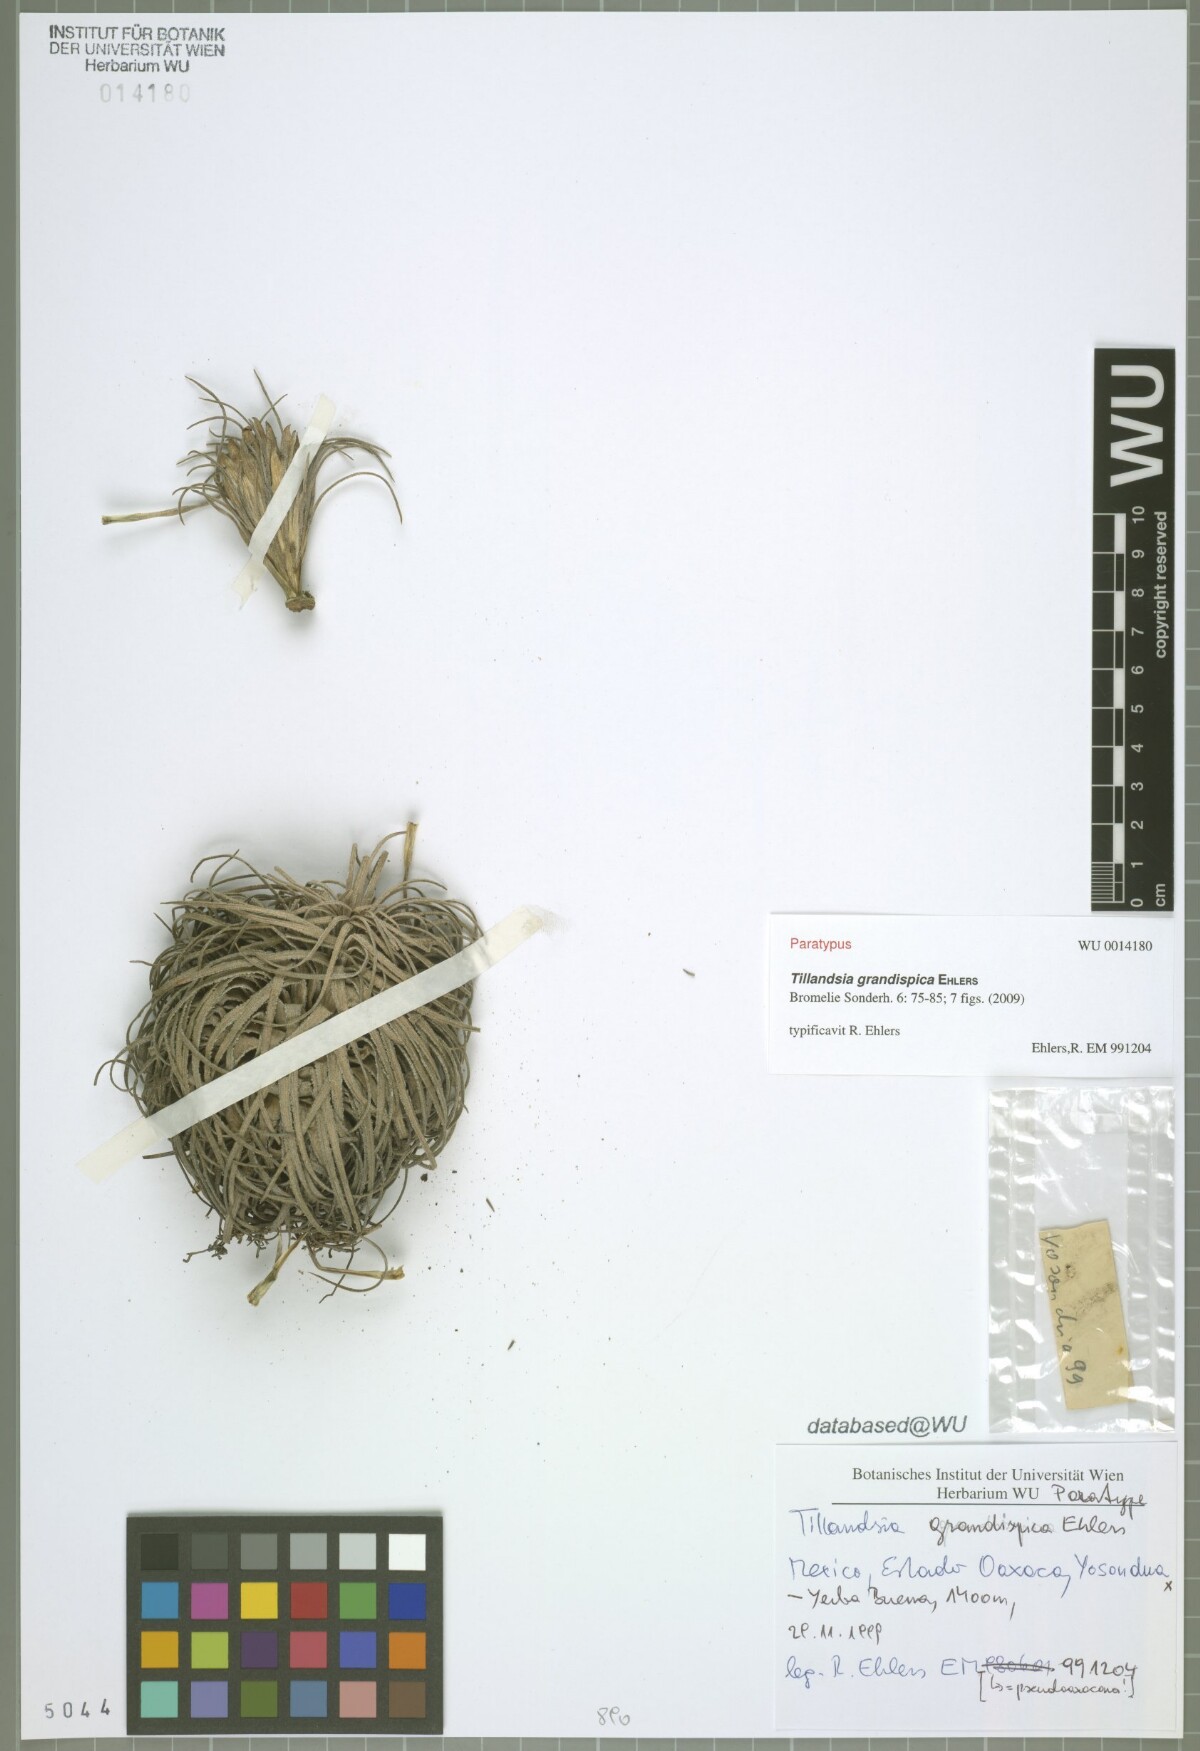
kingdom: Plantae
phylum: Tracheophyta
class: Liliopsida
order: Poales
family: Bromeliaceae
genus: Tillandsia
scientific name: Tillandsia grandispica
